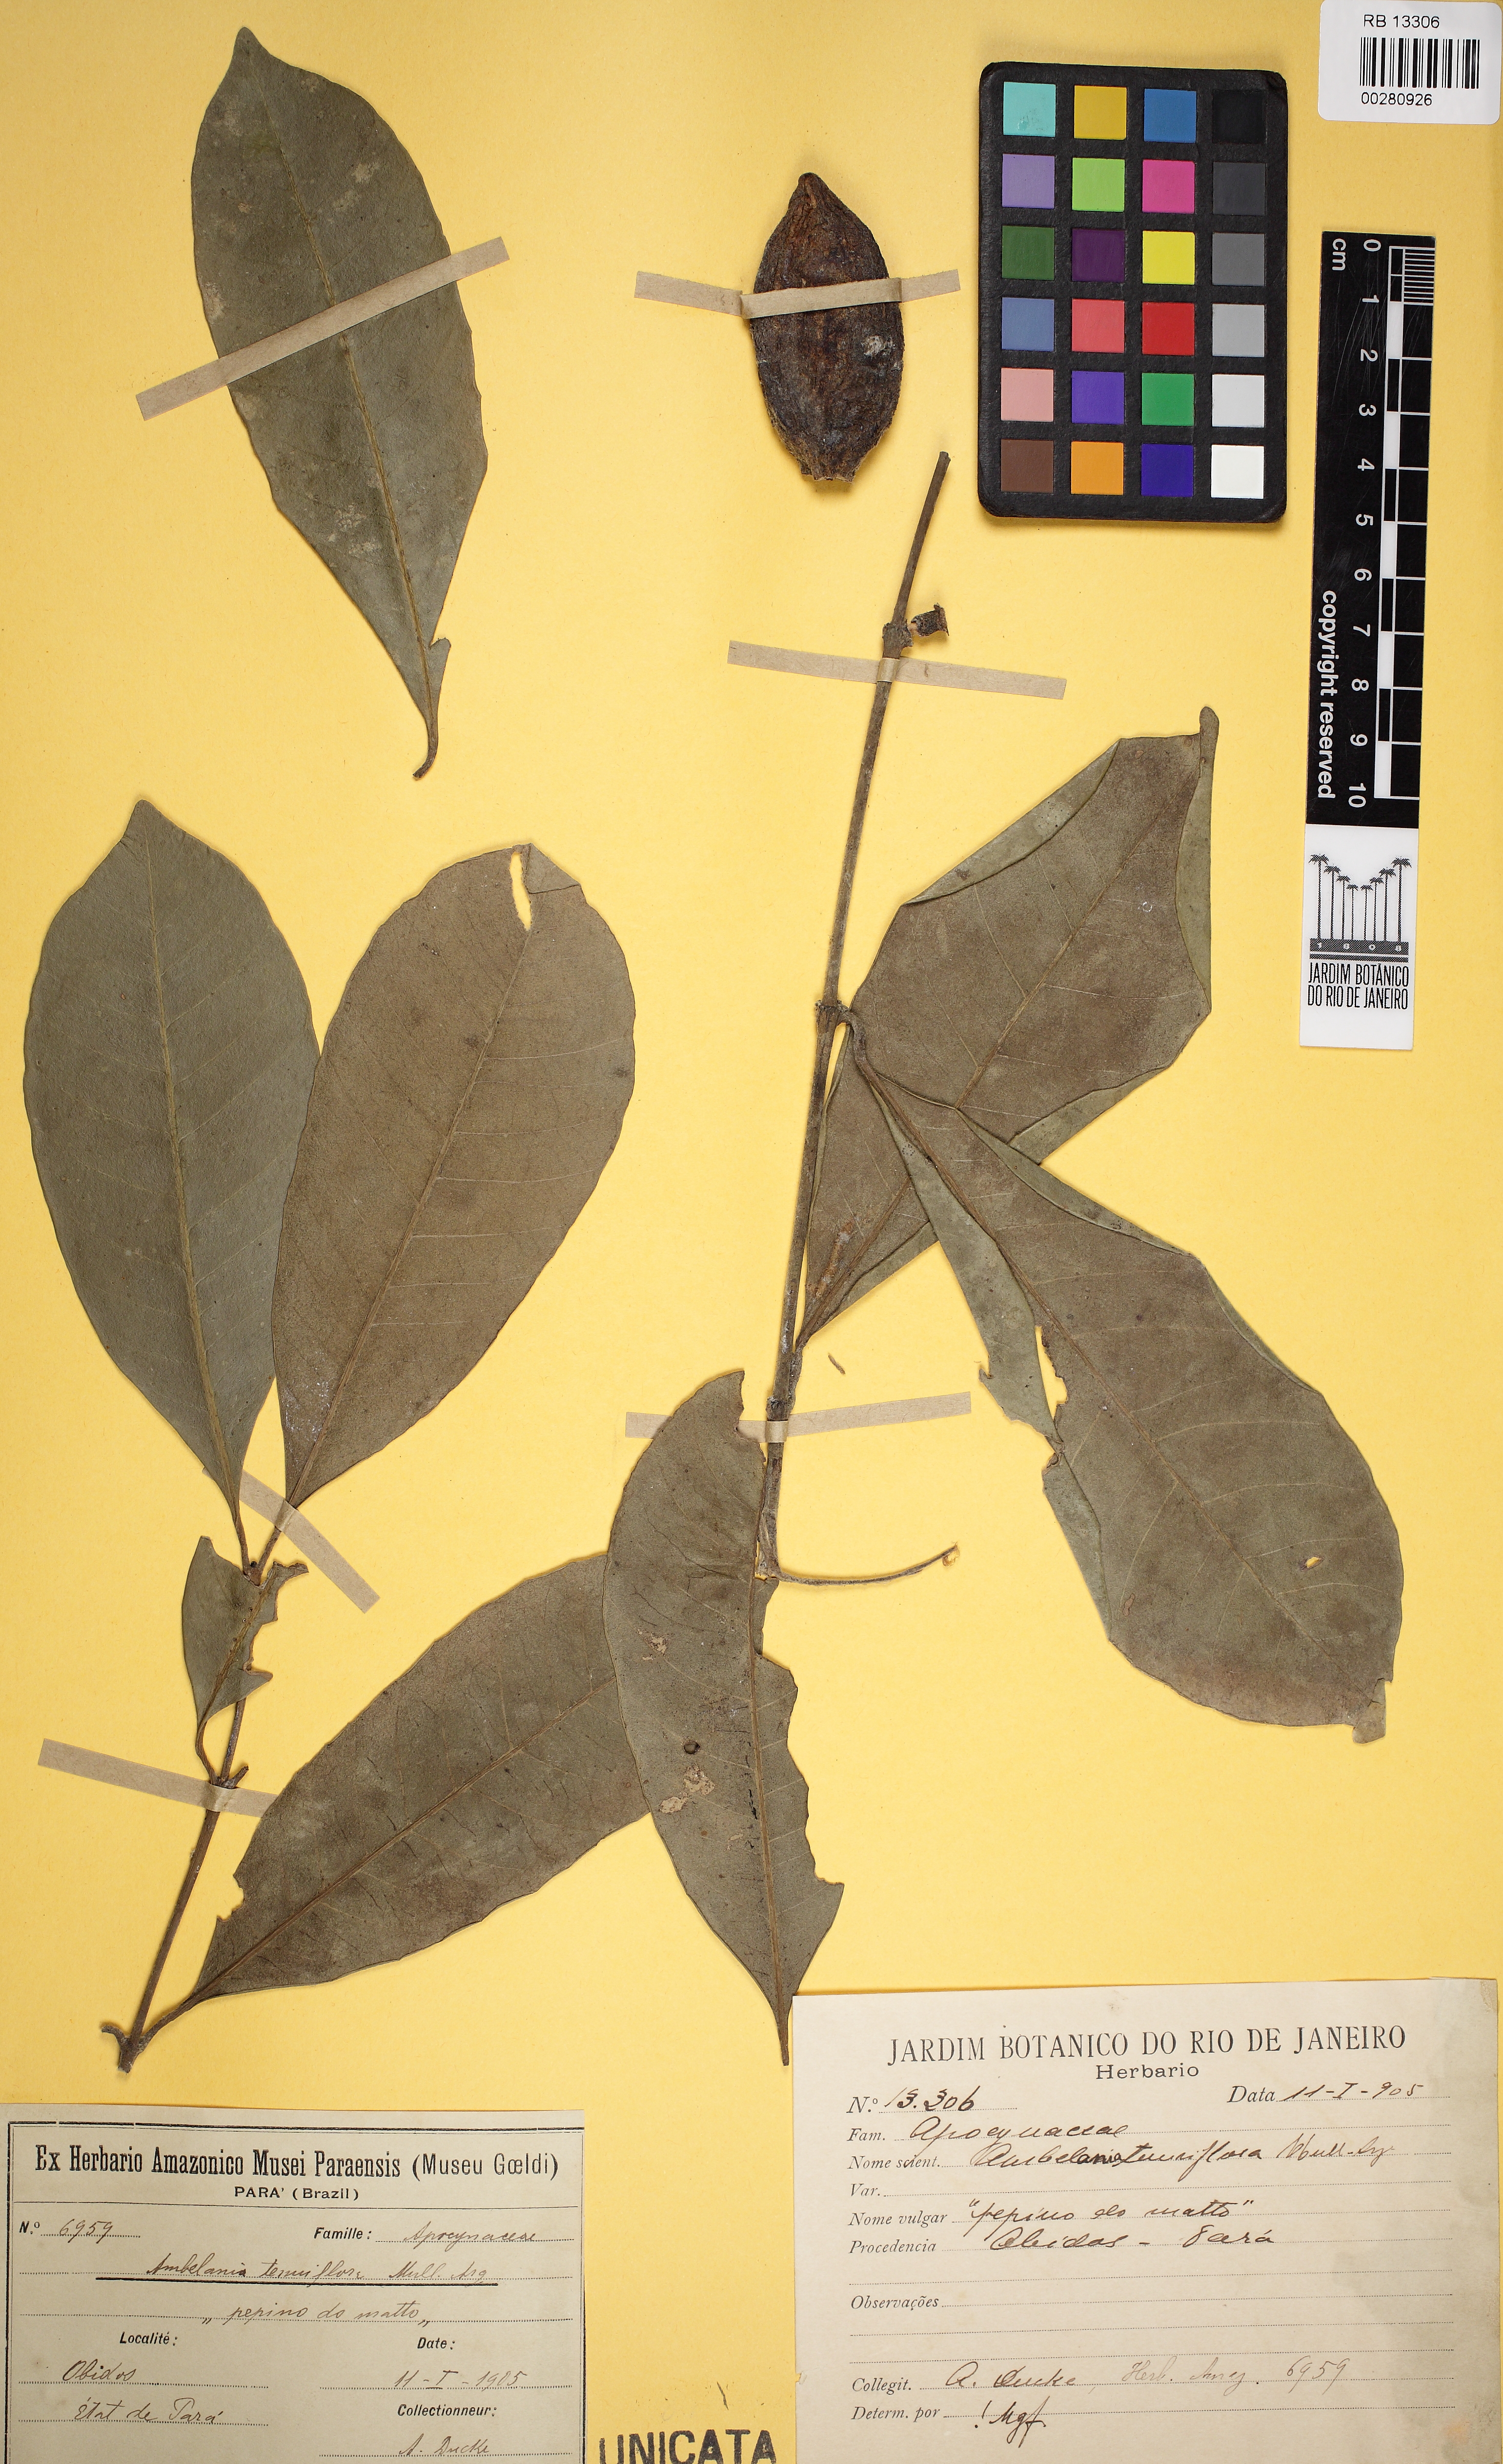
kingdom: Plantae
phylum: Tracheophyta
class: Magnoliopsida
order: Gentianales
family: Apocynaceae
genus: Ambelania
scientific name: Ambelania acida
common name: Bagasse
